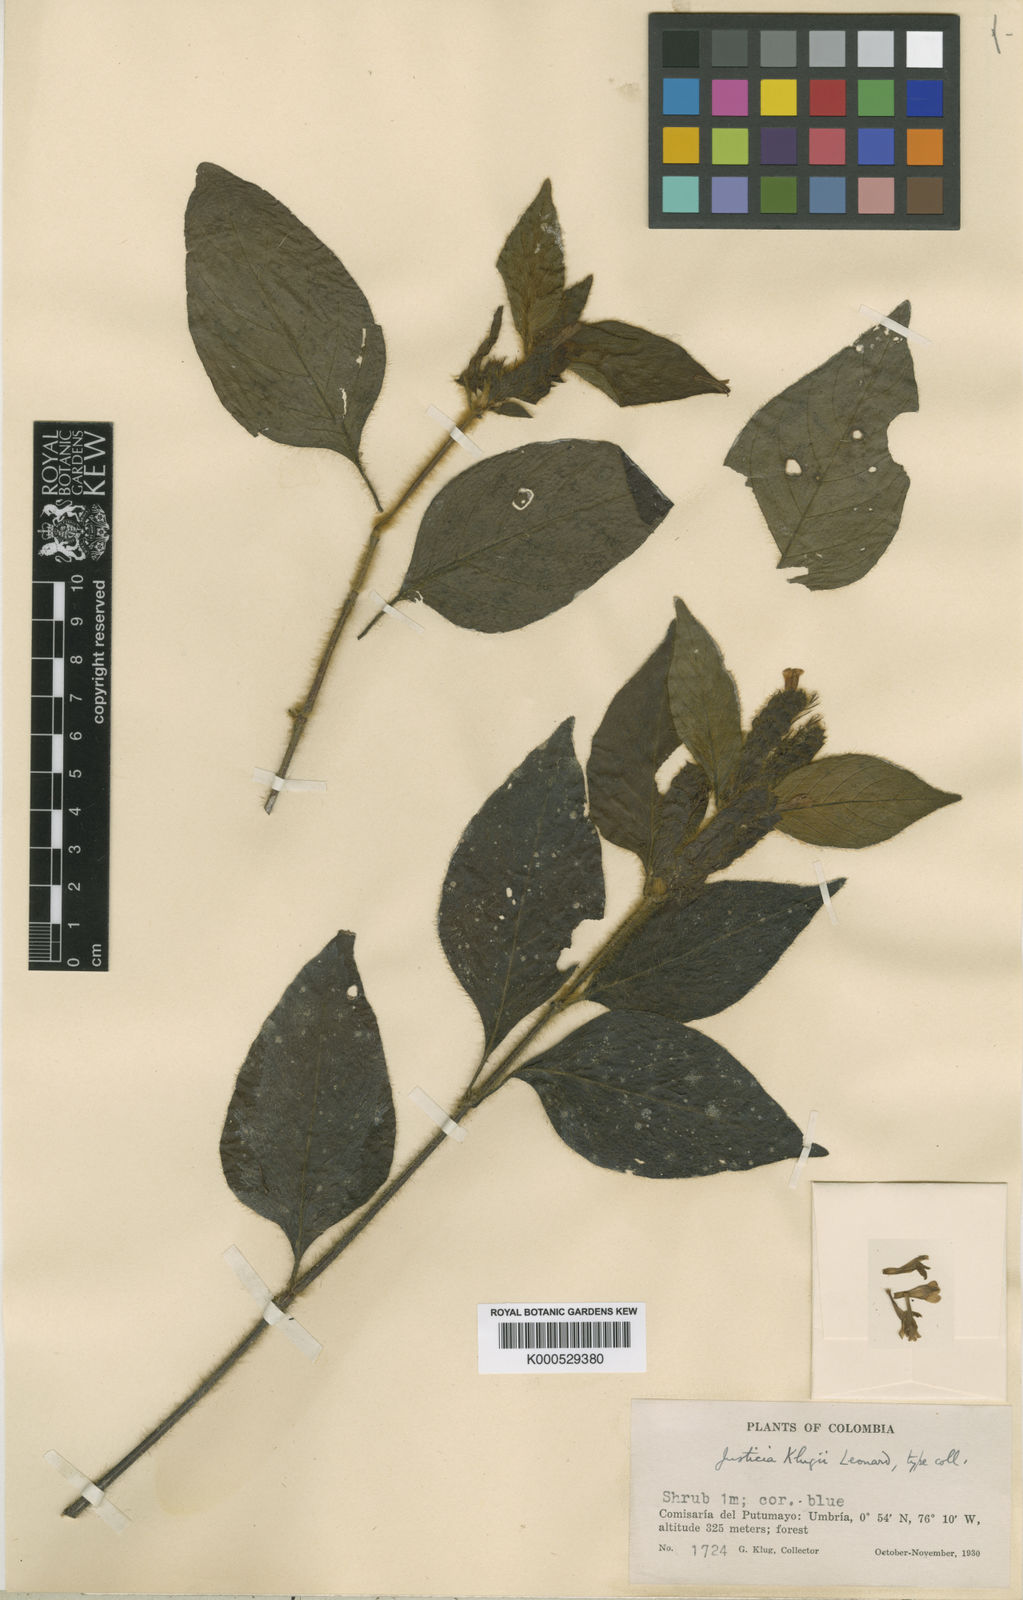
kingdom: Plantae
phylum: Tracheophyta
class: Magnoliopsida
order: Lamiales
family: Acanthaceae
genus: Justicia
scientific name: Justicia
